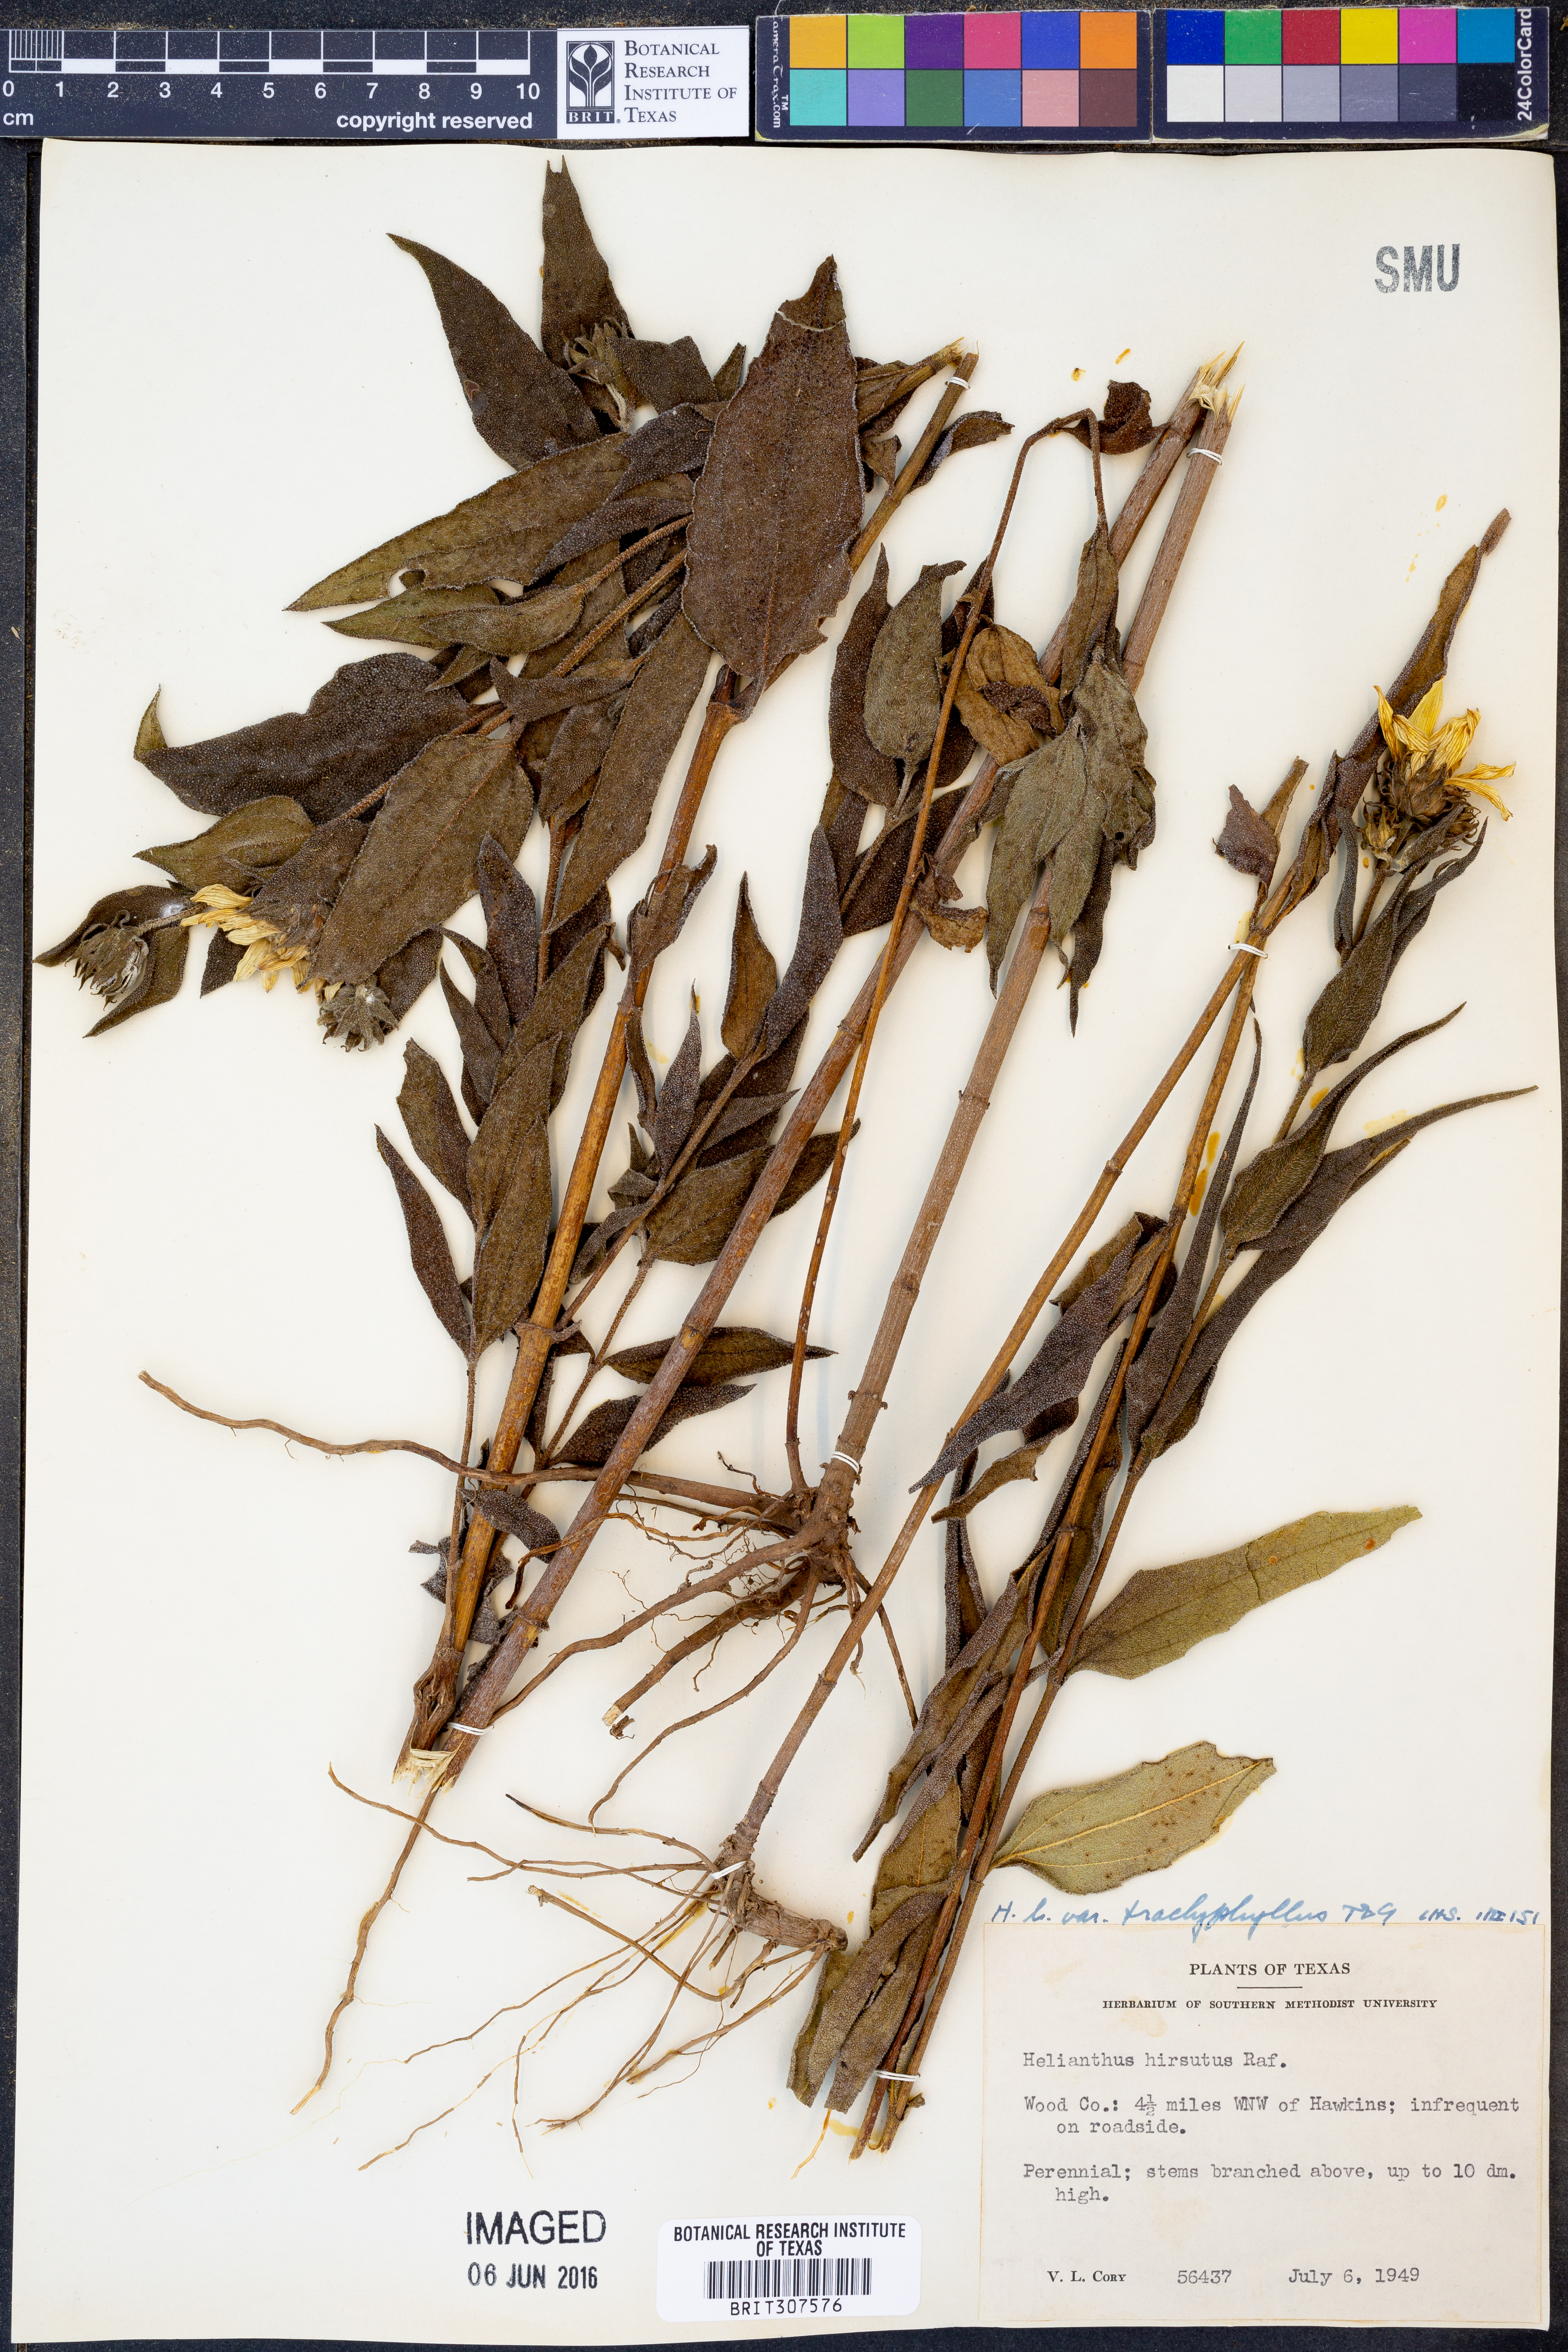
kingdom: Plantae
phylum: Tracheophyta
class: Magnoliopsida
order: Asterales
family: Asteraceae
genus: Helianthus
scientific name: Helianthus hirsutus
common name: Hairy sunflower
